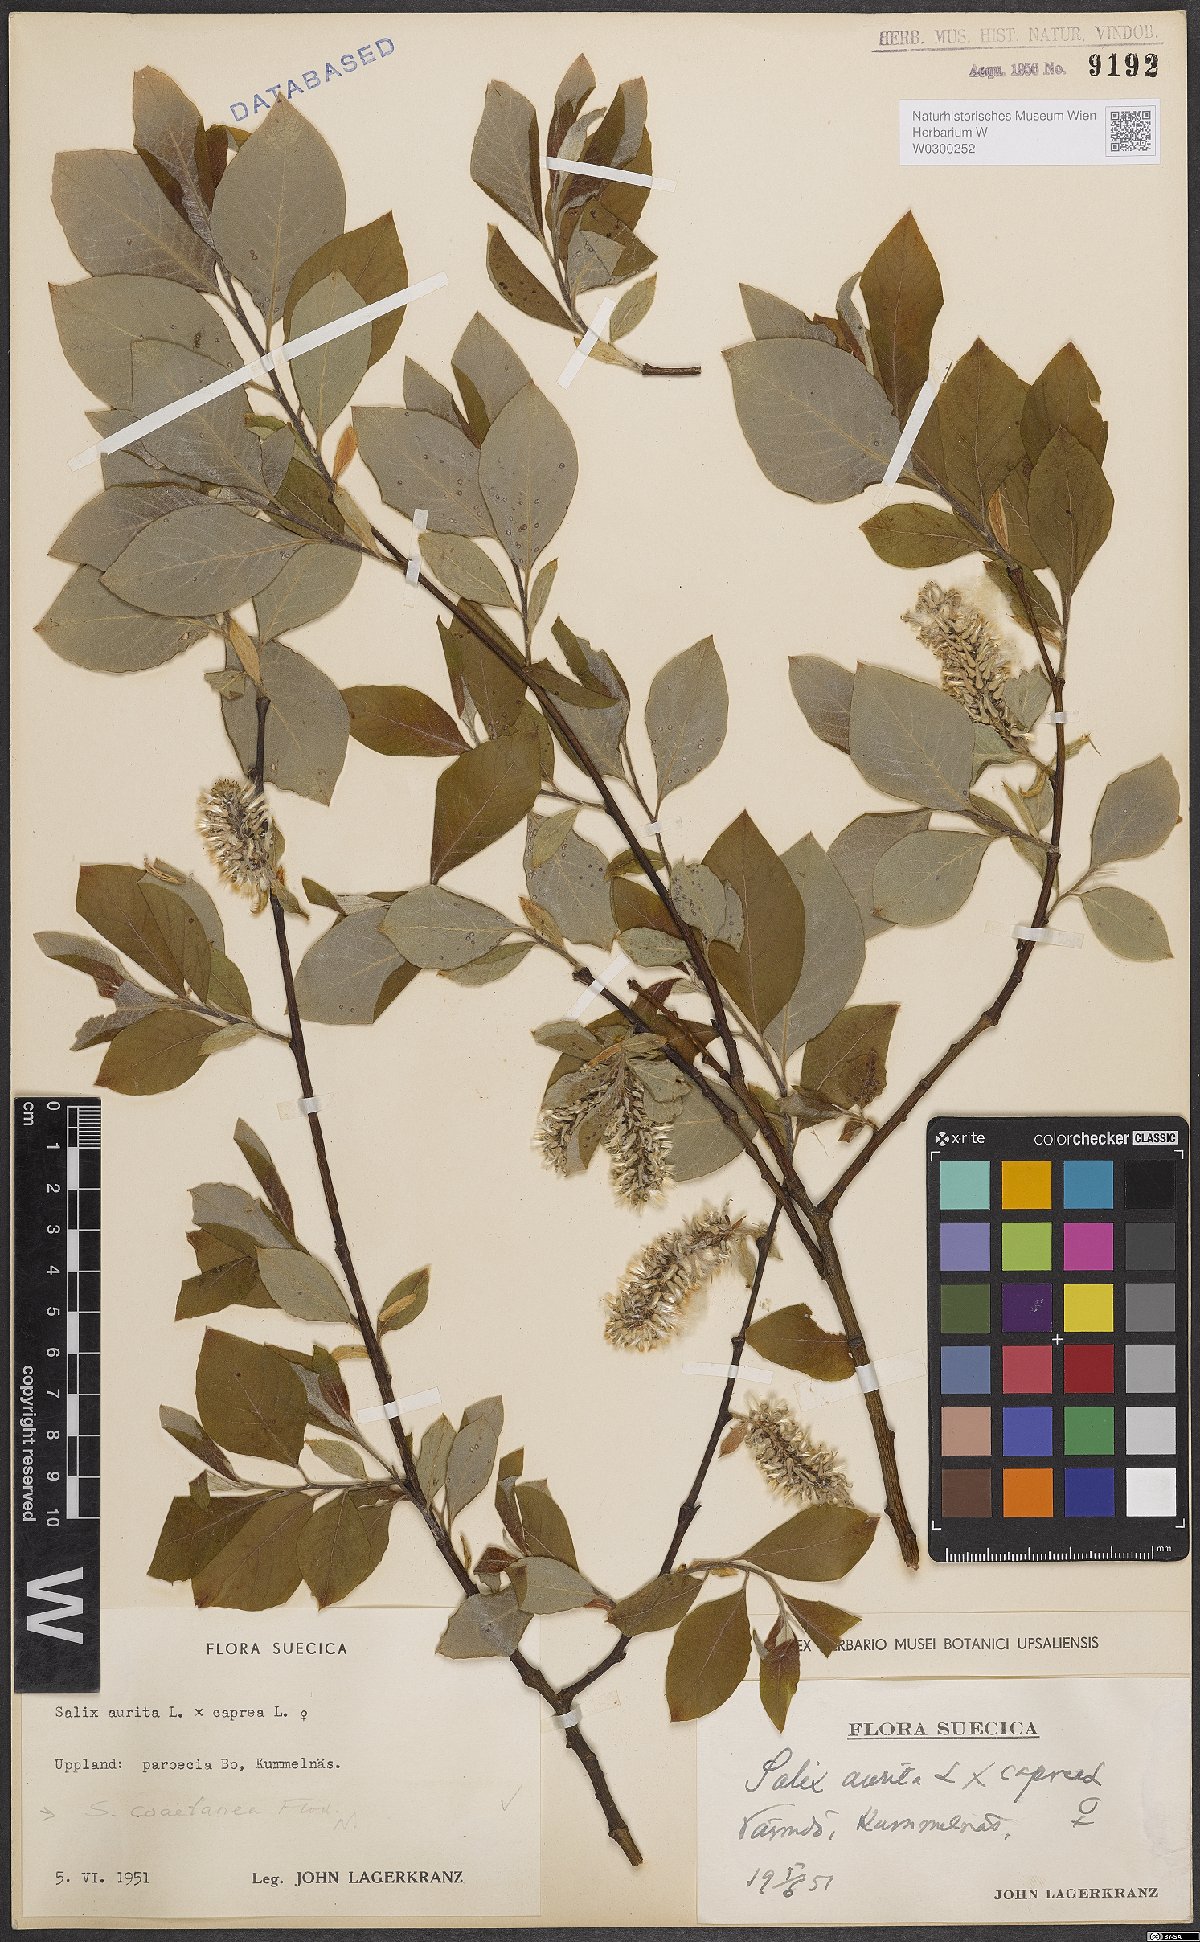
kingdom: Plantae
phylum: Tracheophyta
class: Magnoliopsida
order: Malpighiales
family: Salicaceae
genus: Salix
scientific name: Salix caprea
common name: Goat willow
